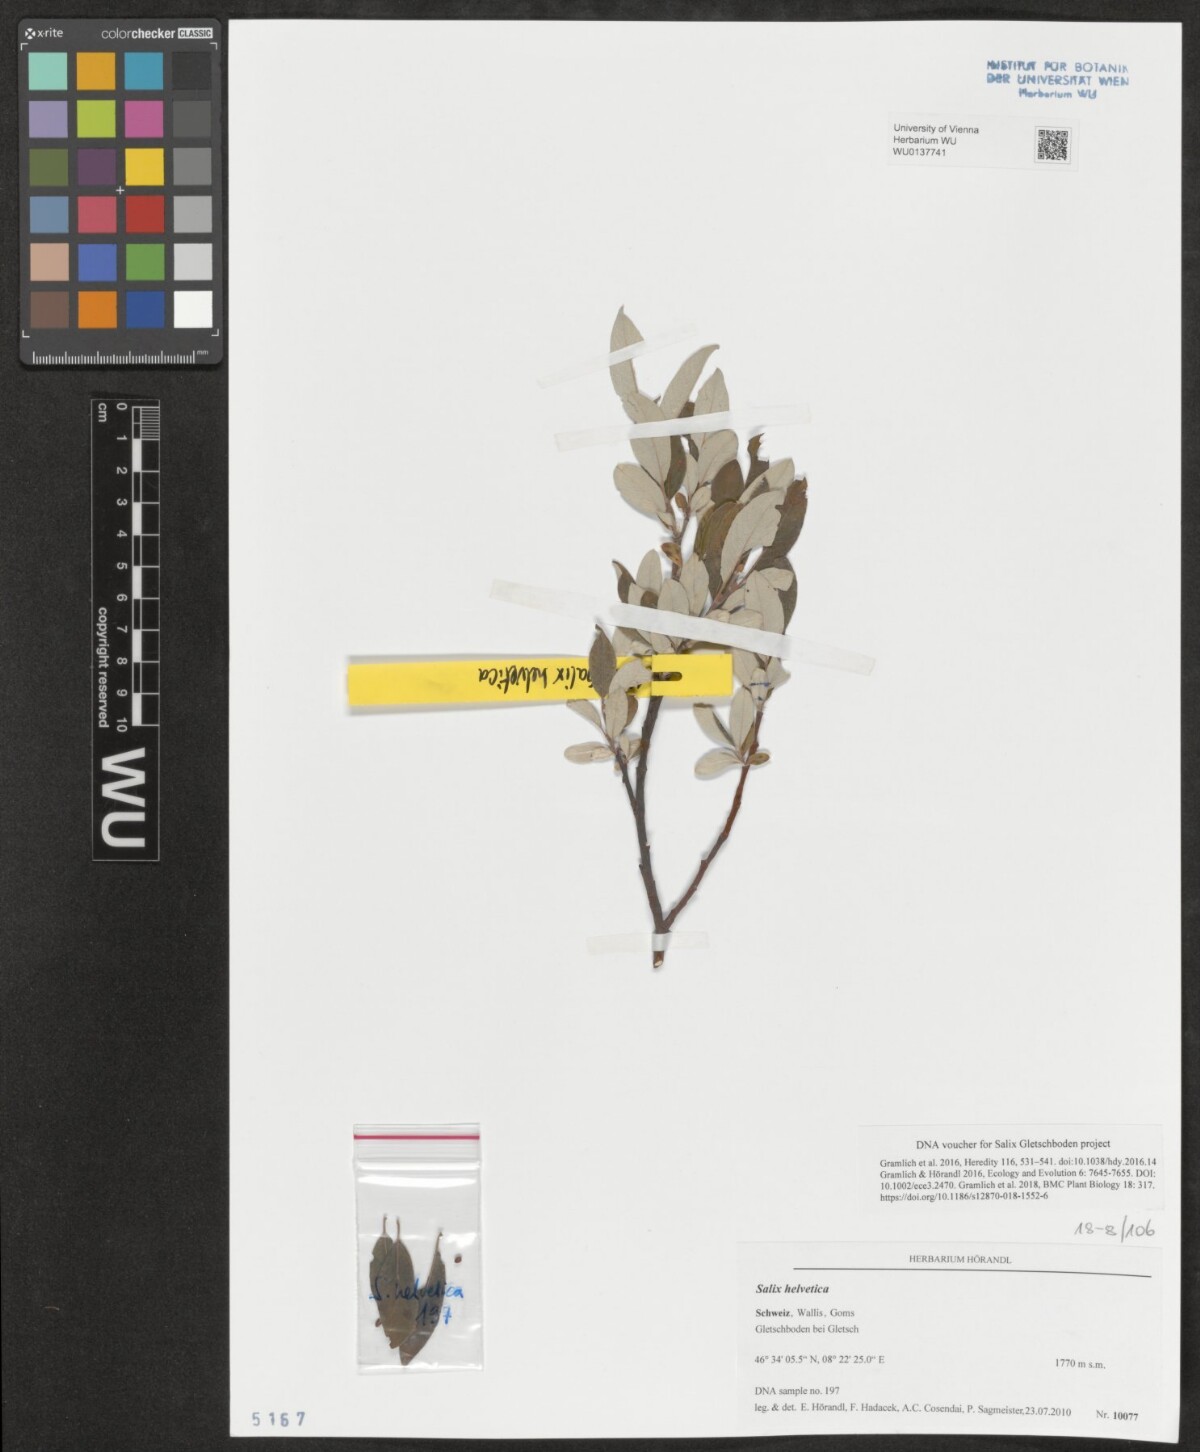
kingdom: Plantae
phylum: Tracheophyta
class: Magnoliopsida
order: Malpighiales
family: Salicaceae
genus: Salix
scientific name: Salix helvetica
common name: Swiss willow
